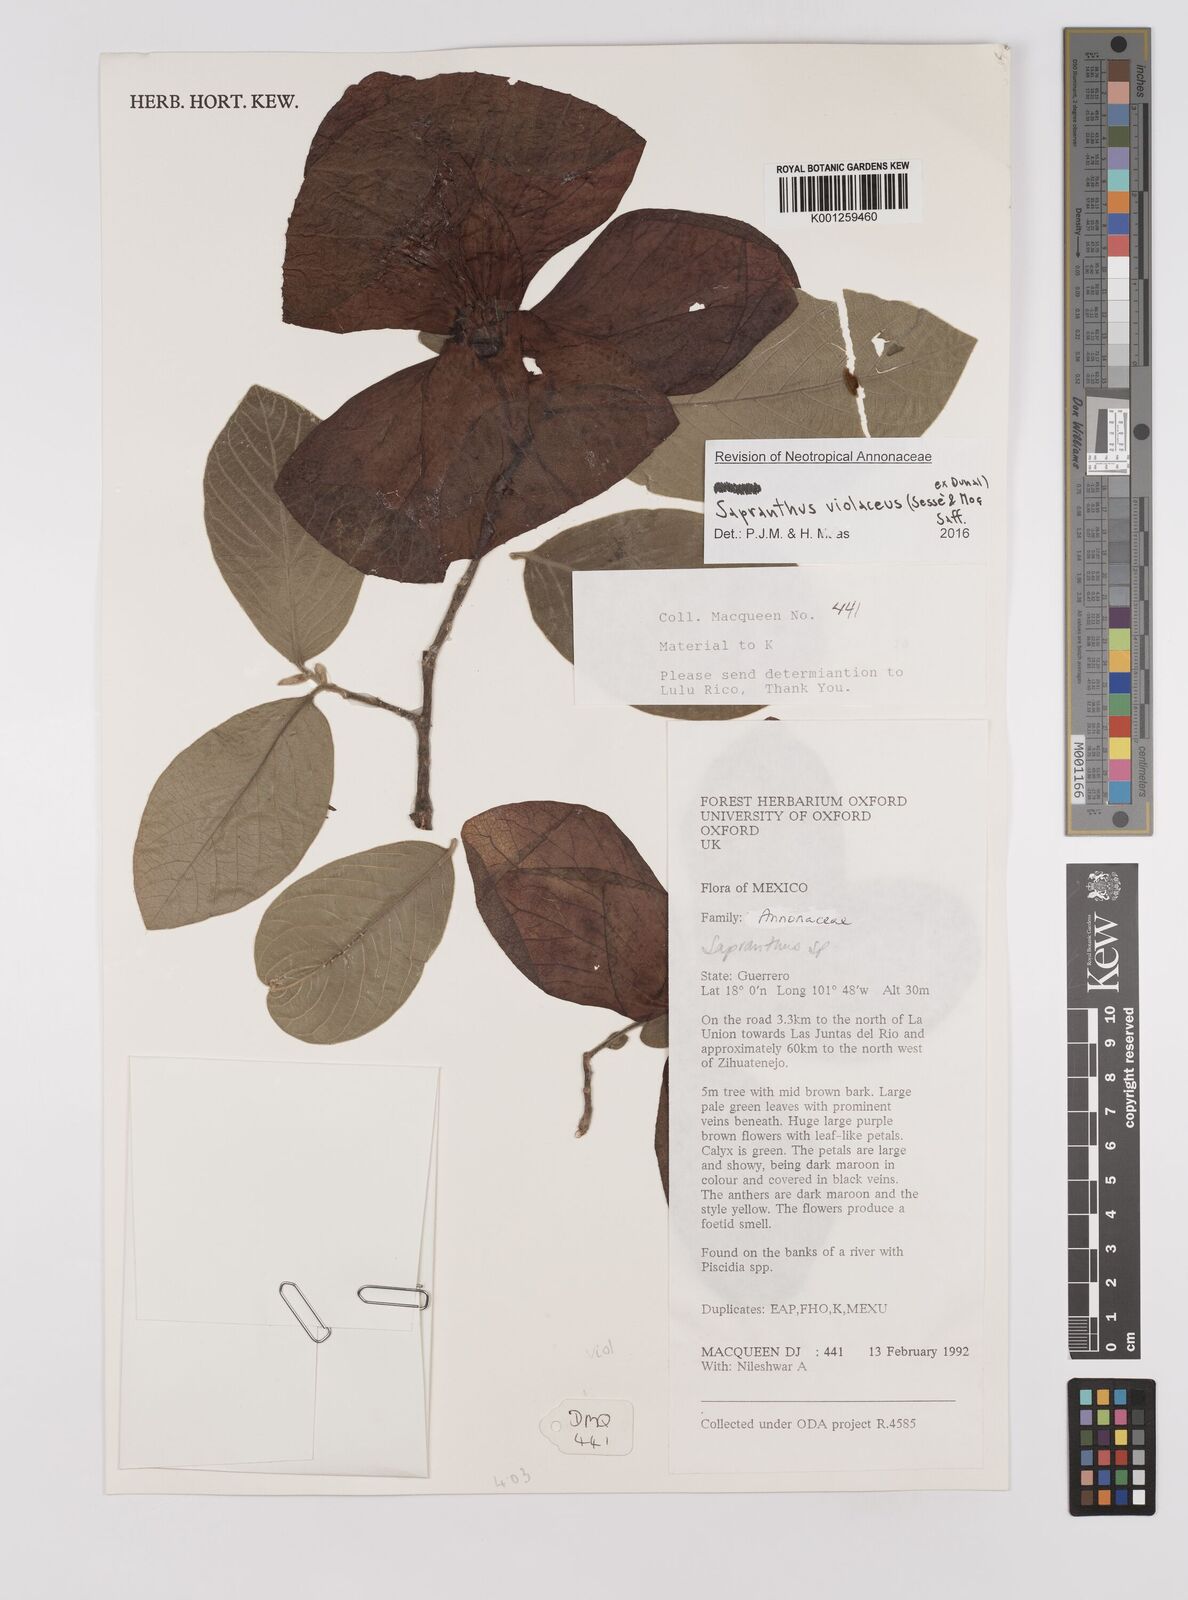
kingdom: Plantae
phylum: Tracheophyta
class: Magnoliopsida
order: Magnoliales
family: Annonaceae
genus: Sapranthus
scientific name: Sapranthus
